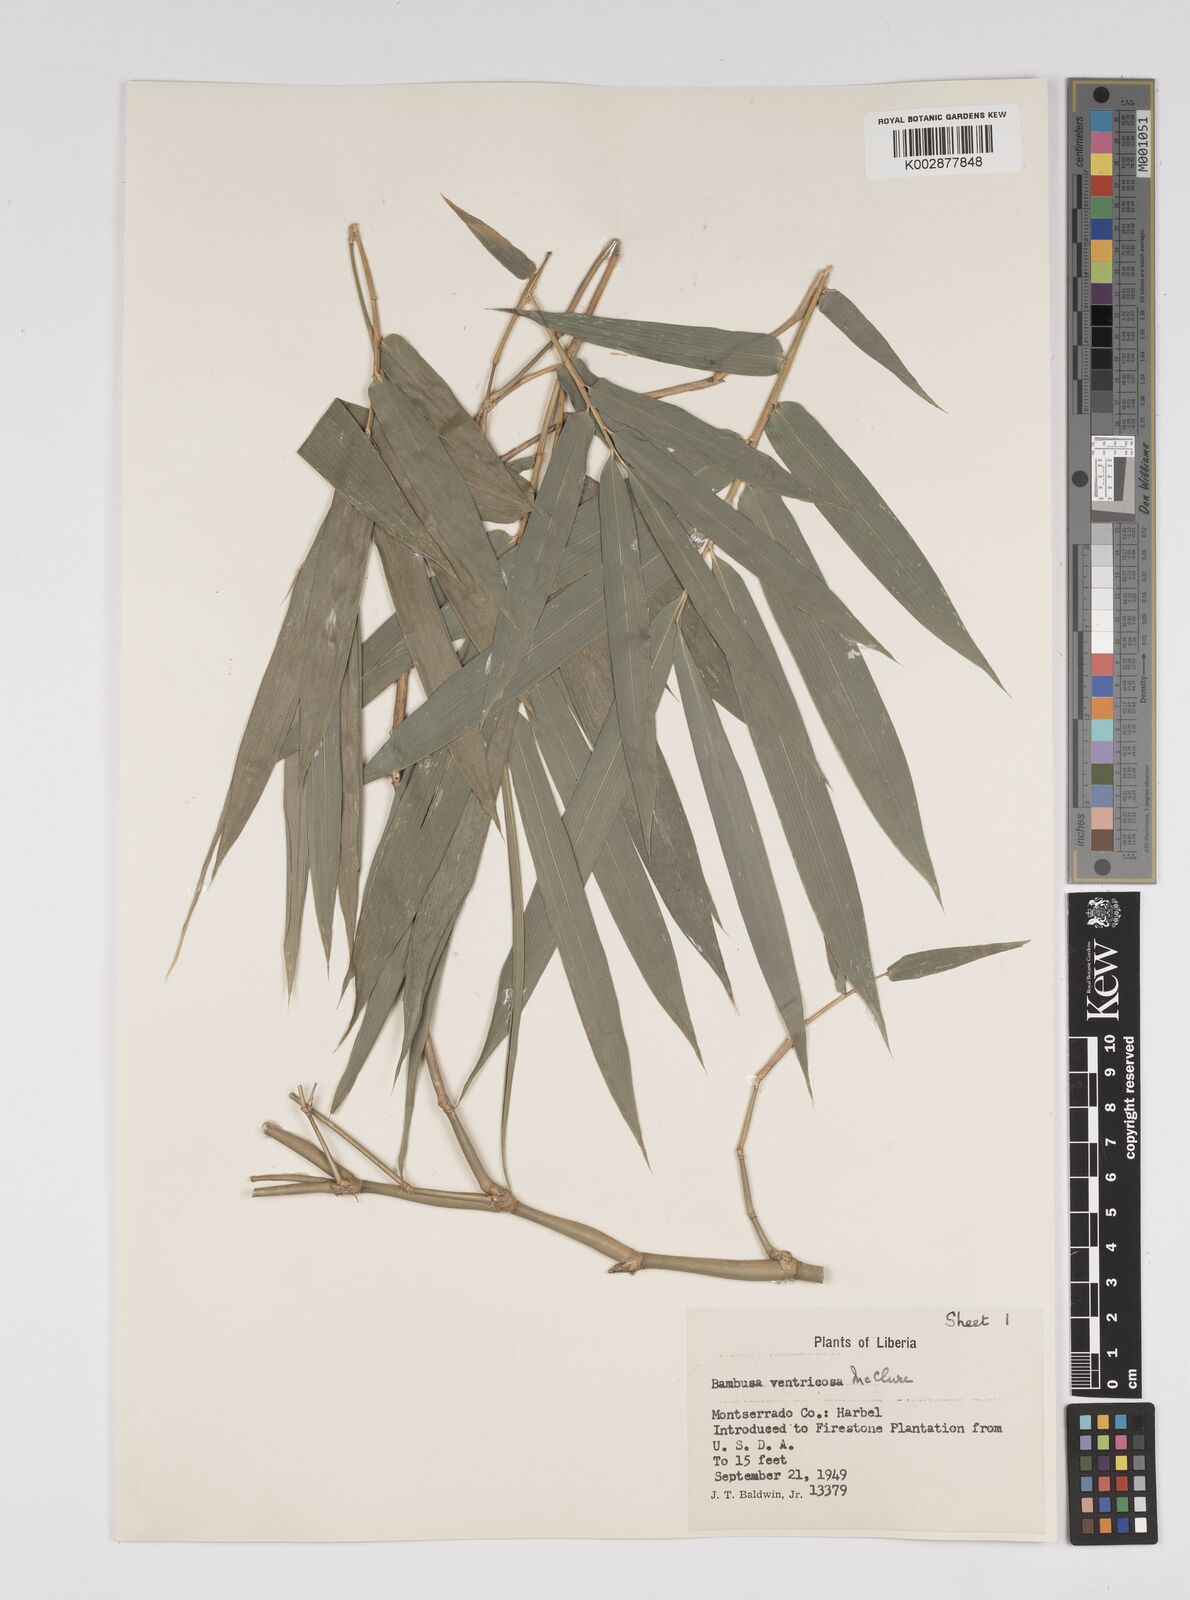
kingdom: Plantae
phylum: Tracheophyta
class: Liliopsida
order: Poales
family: Poaceae
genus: Bambusa
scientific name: Bambusa ventricosa
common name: Buddha bamboo
